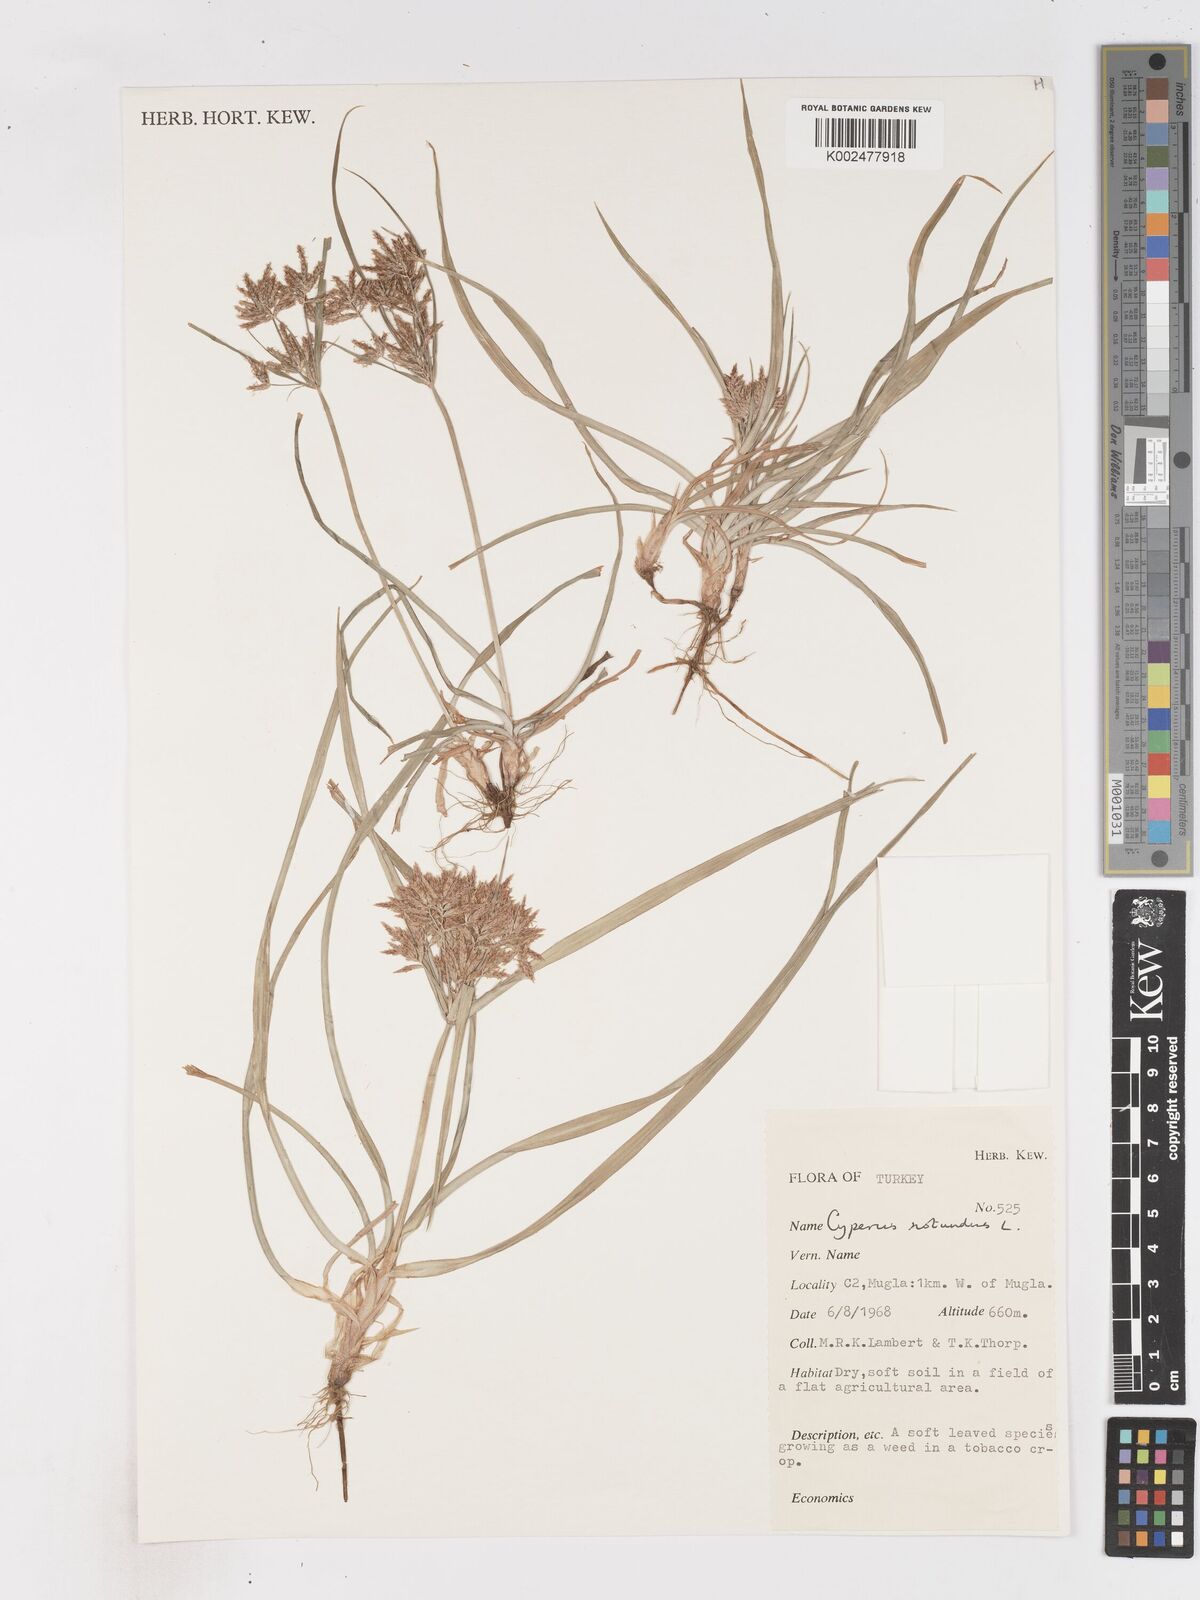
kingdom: Plantae
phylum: Tracheophyta
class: Liliopsida
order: Poales
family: Cyperaceae
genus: Cyperus
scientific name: Cyperus rotundus
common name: Nutgrass
